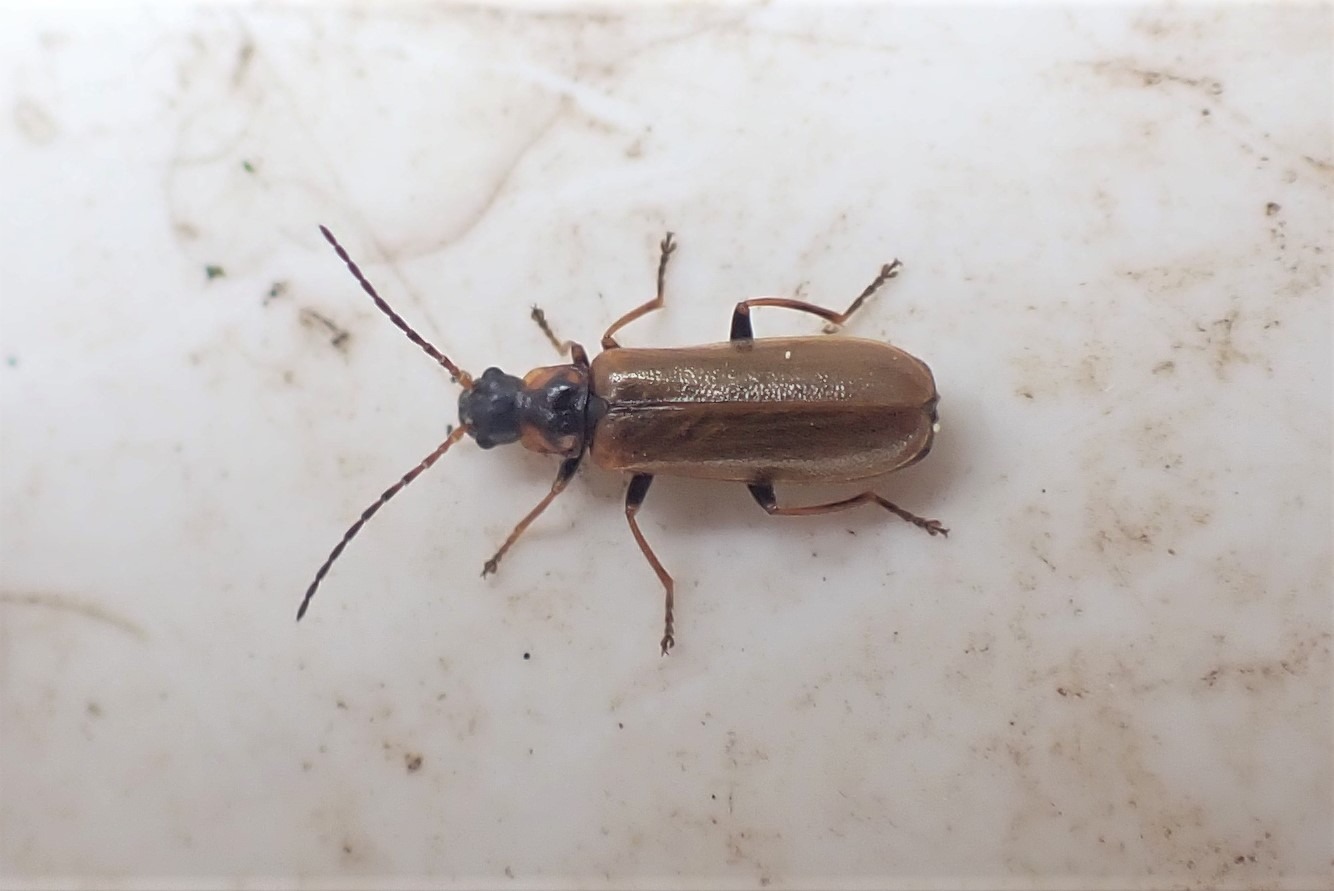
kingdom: Animalia
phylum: Arthropoda
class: Insecta
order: Coleoptera
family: Cantharidae
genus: Rhagonycha
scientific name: Rhagonycha nigriventris
